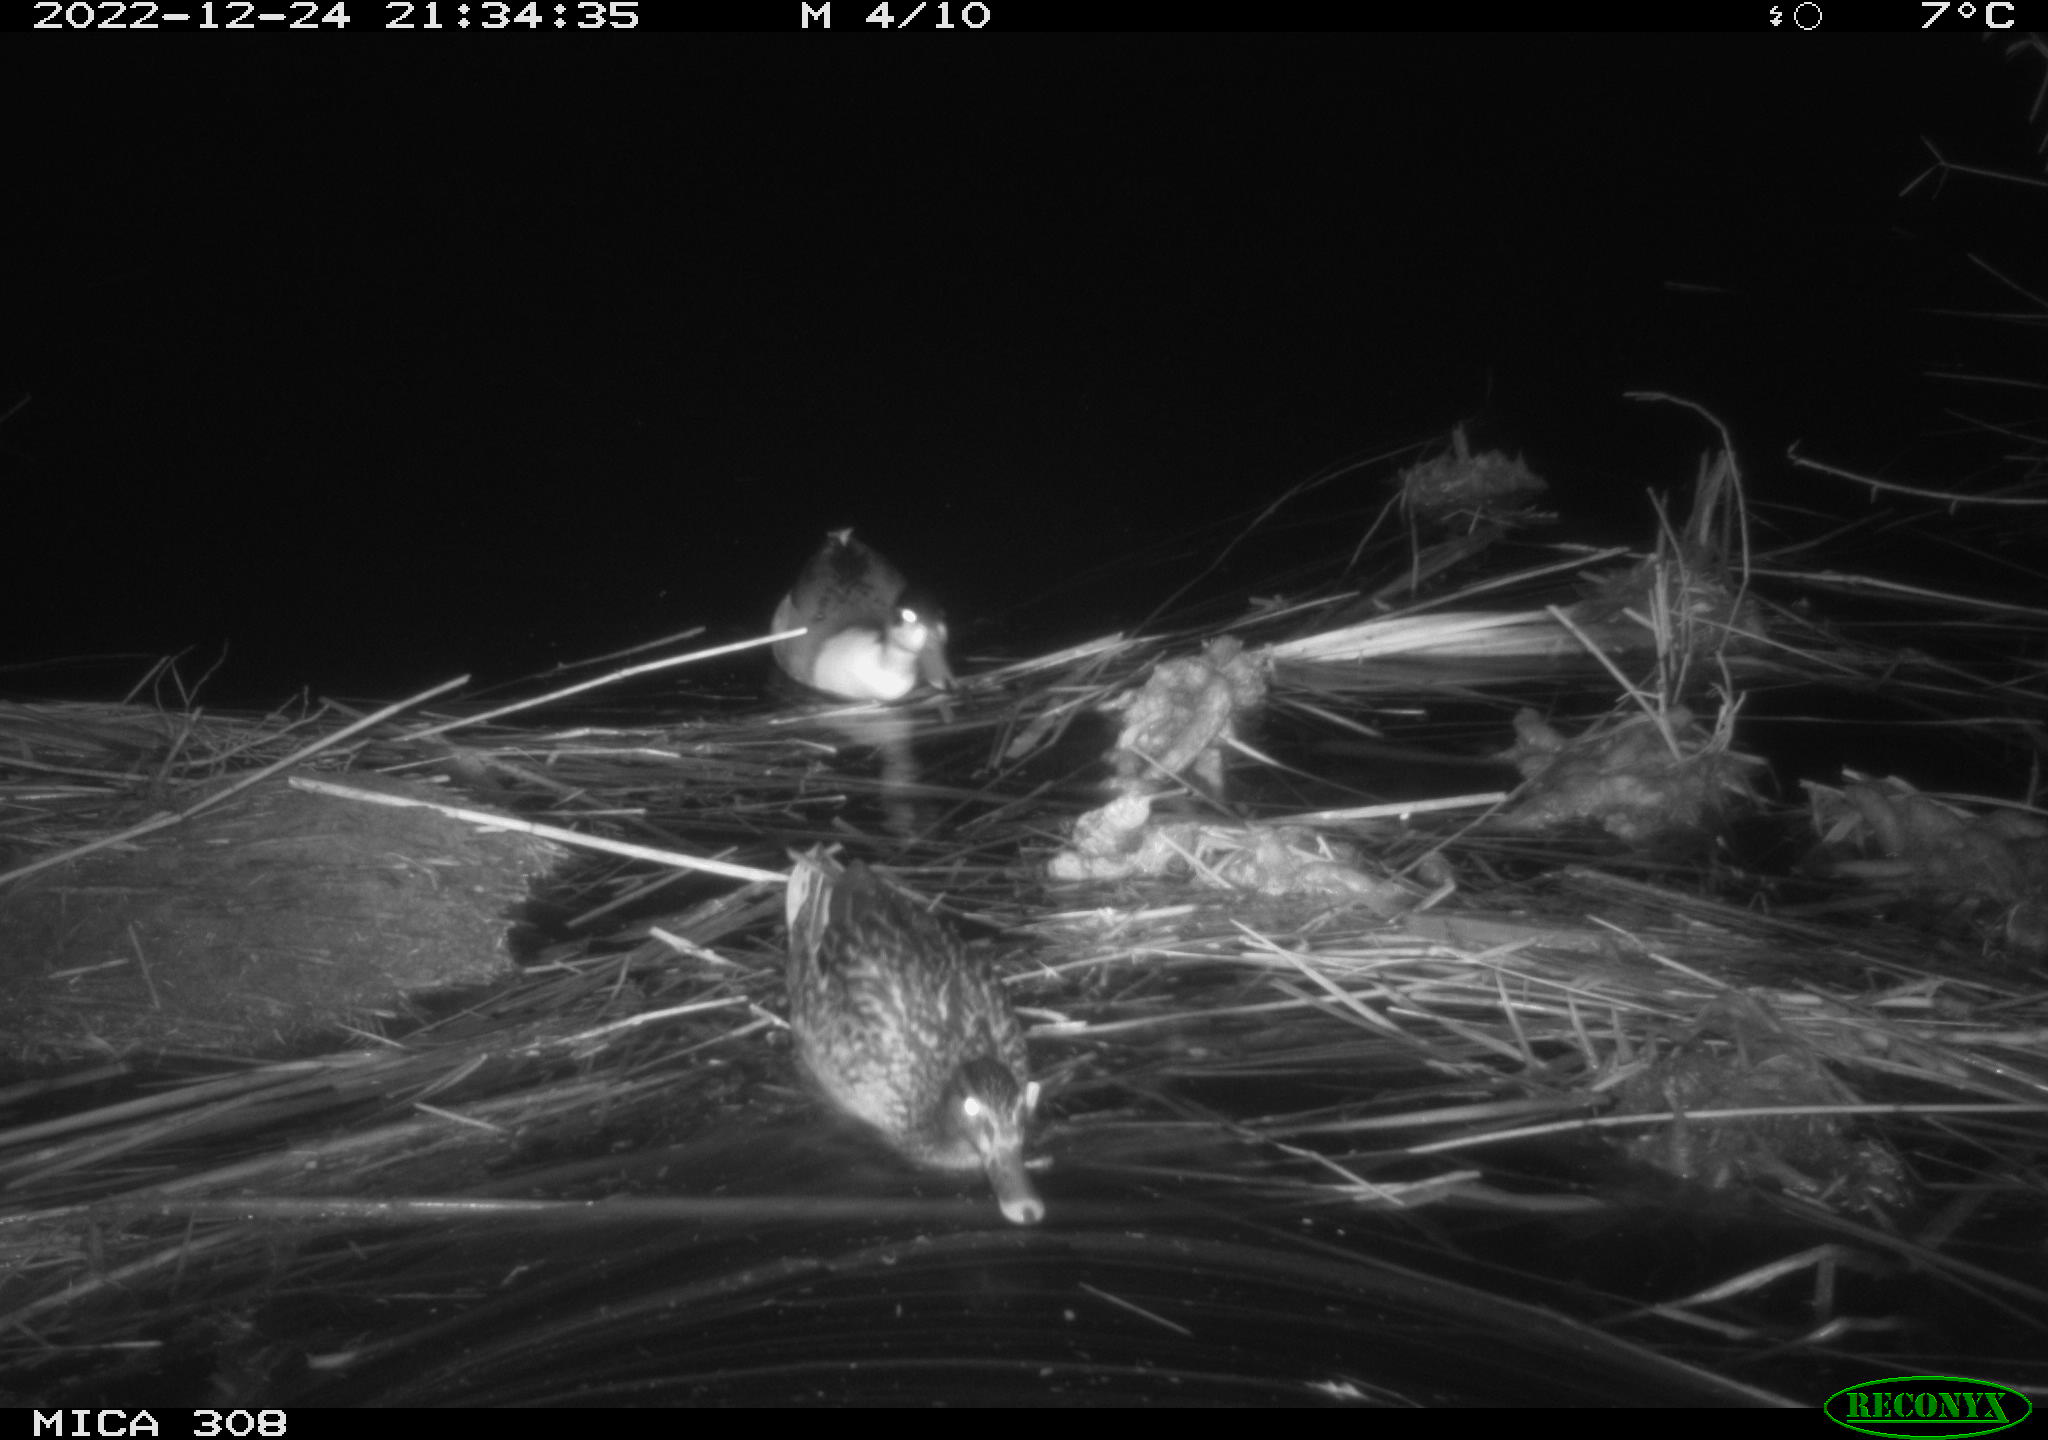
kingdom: Animalia
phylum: Chordata
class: Aves
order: Anseriformes
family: Anatidae
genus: Anas
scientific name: Anas
